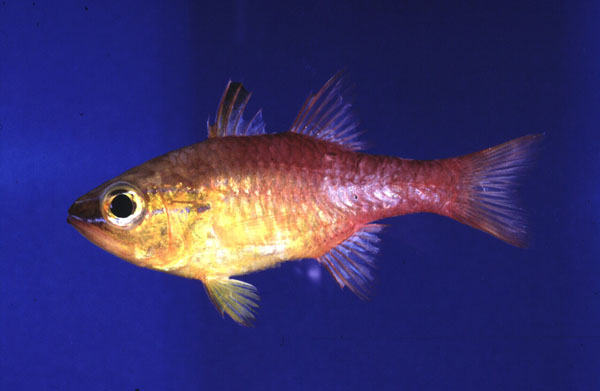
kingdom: Animalia
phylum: Chordata
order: Perciformes
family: Apogonidae
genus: Ostorhinchus
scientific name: Ostorhinchus apogonoides
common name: Goldbelly cardinalfish
